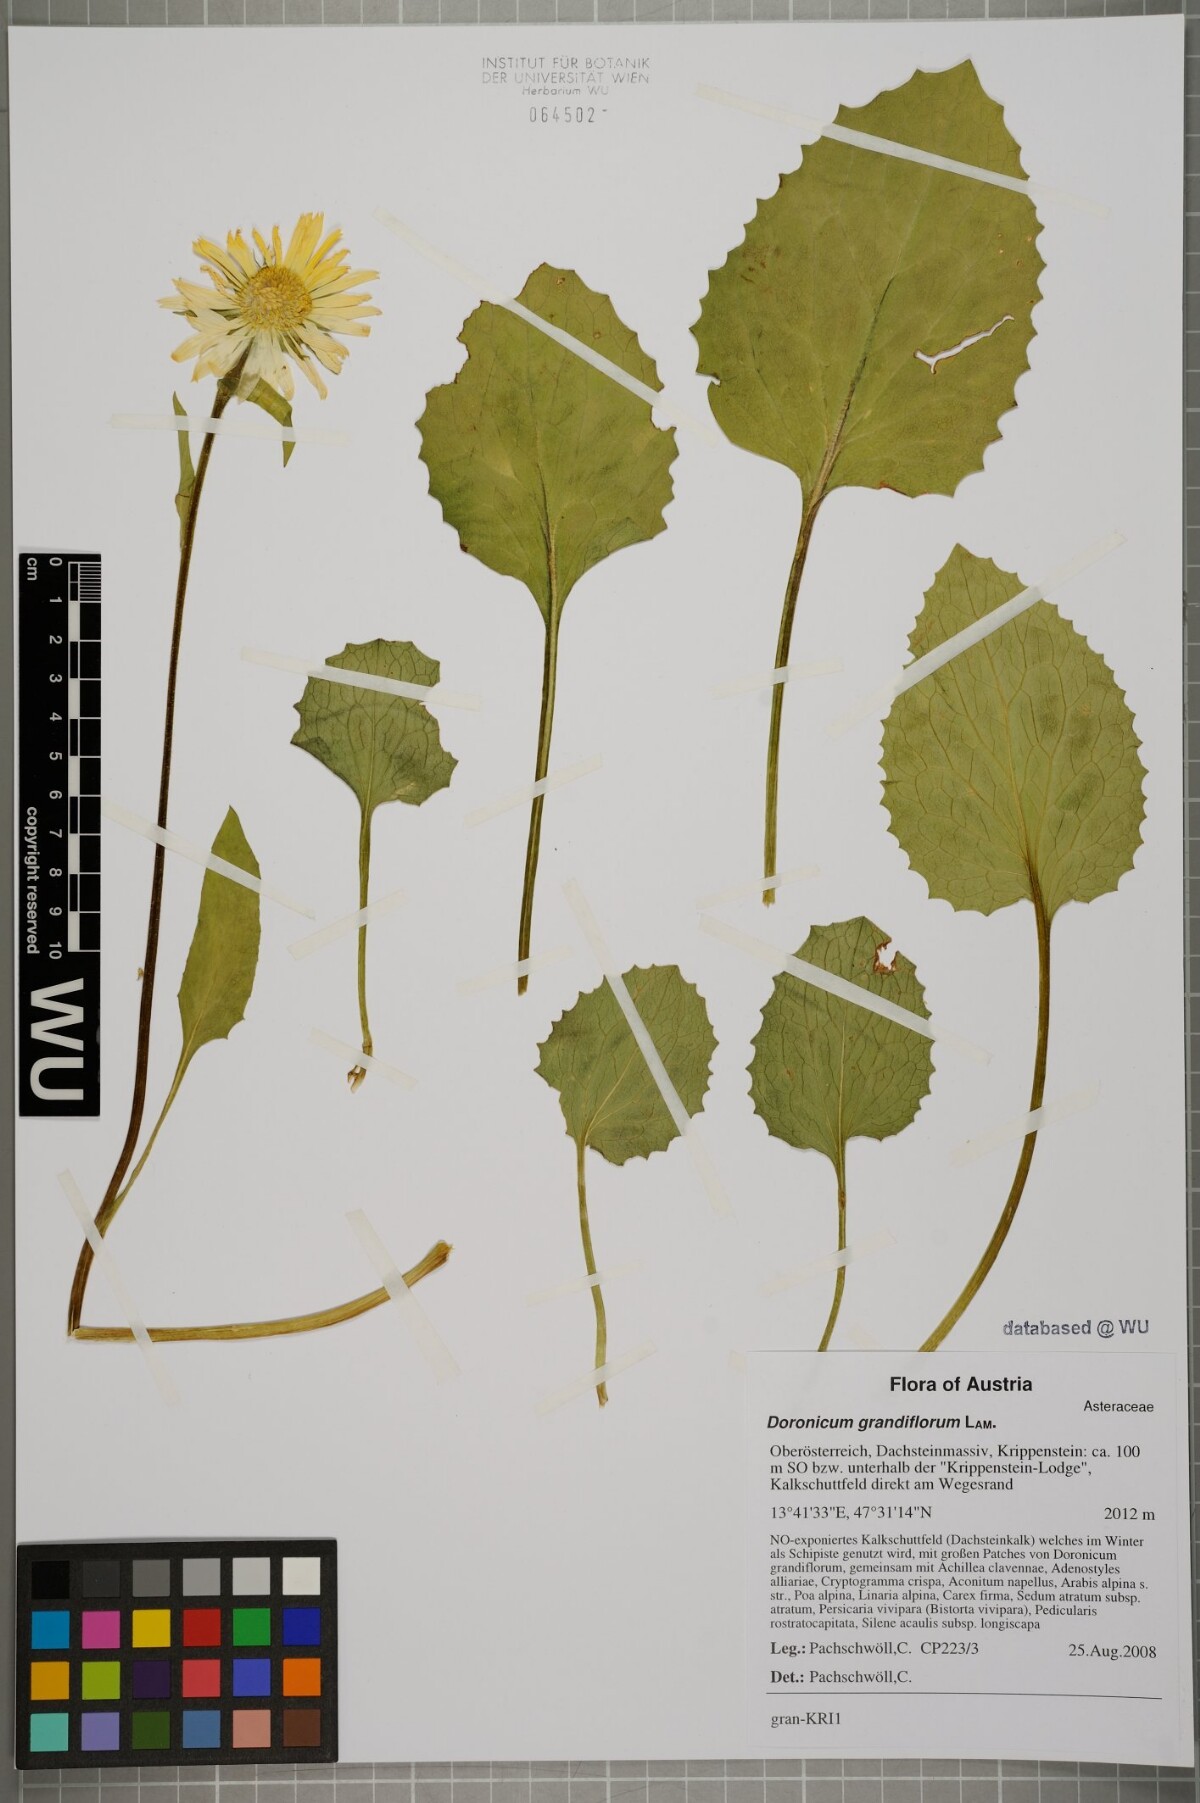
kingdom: Plantae
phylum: Tracheophyta
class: Magnoliopsida
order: Asterales
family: Asteraceae
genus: Doronicum
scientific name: Doronicum grandiflorum
